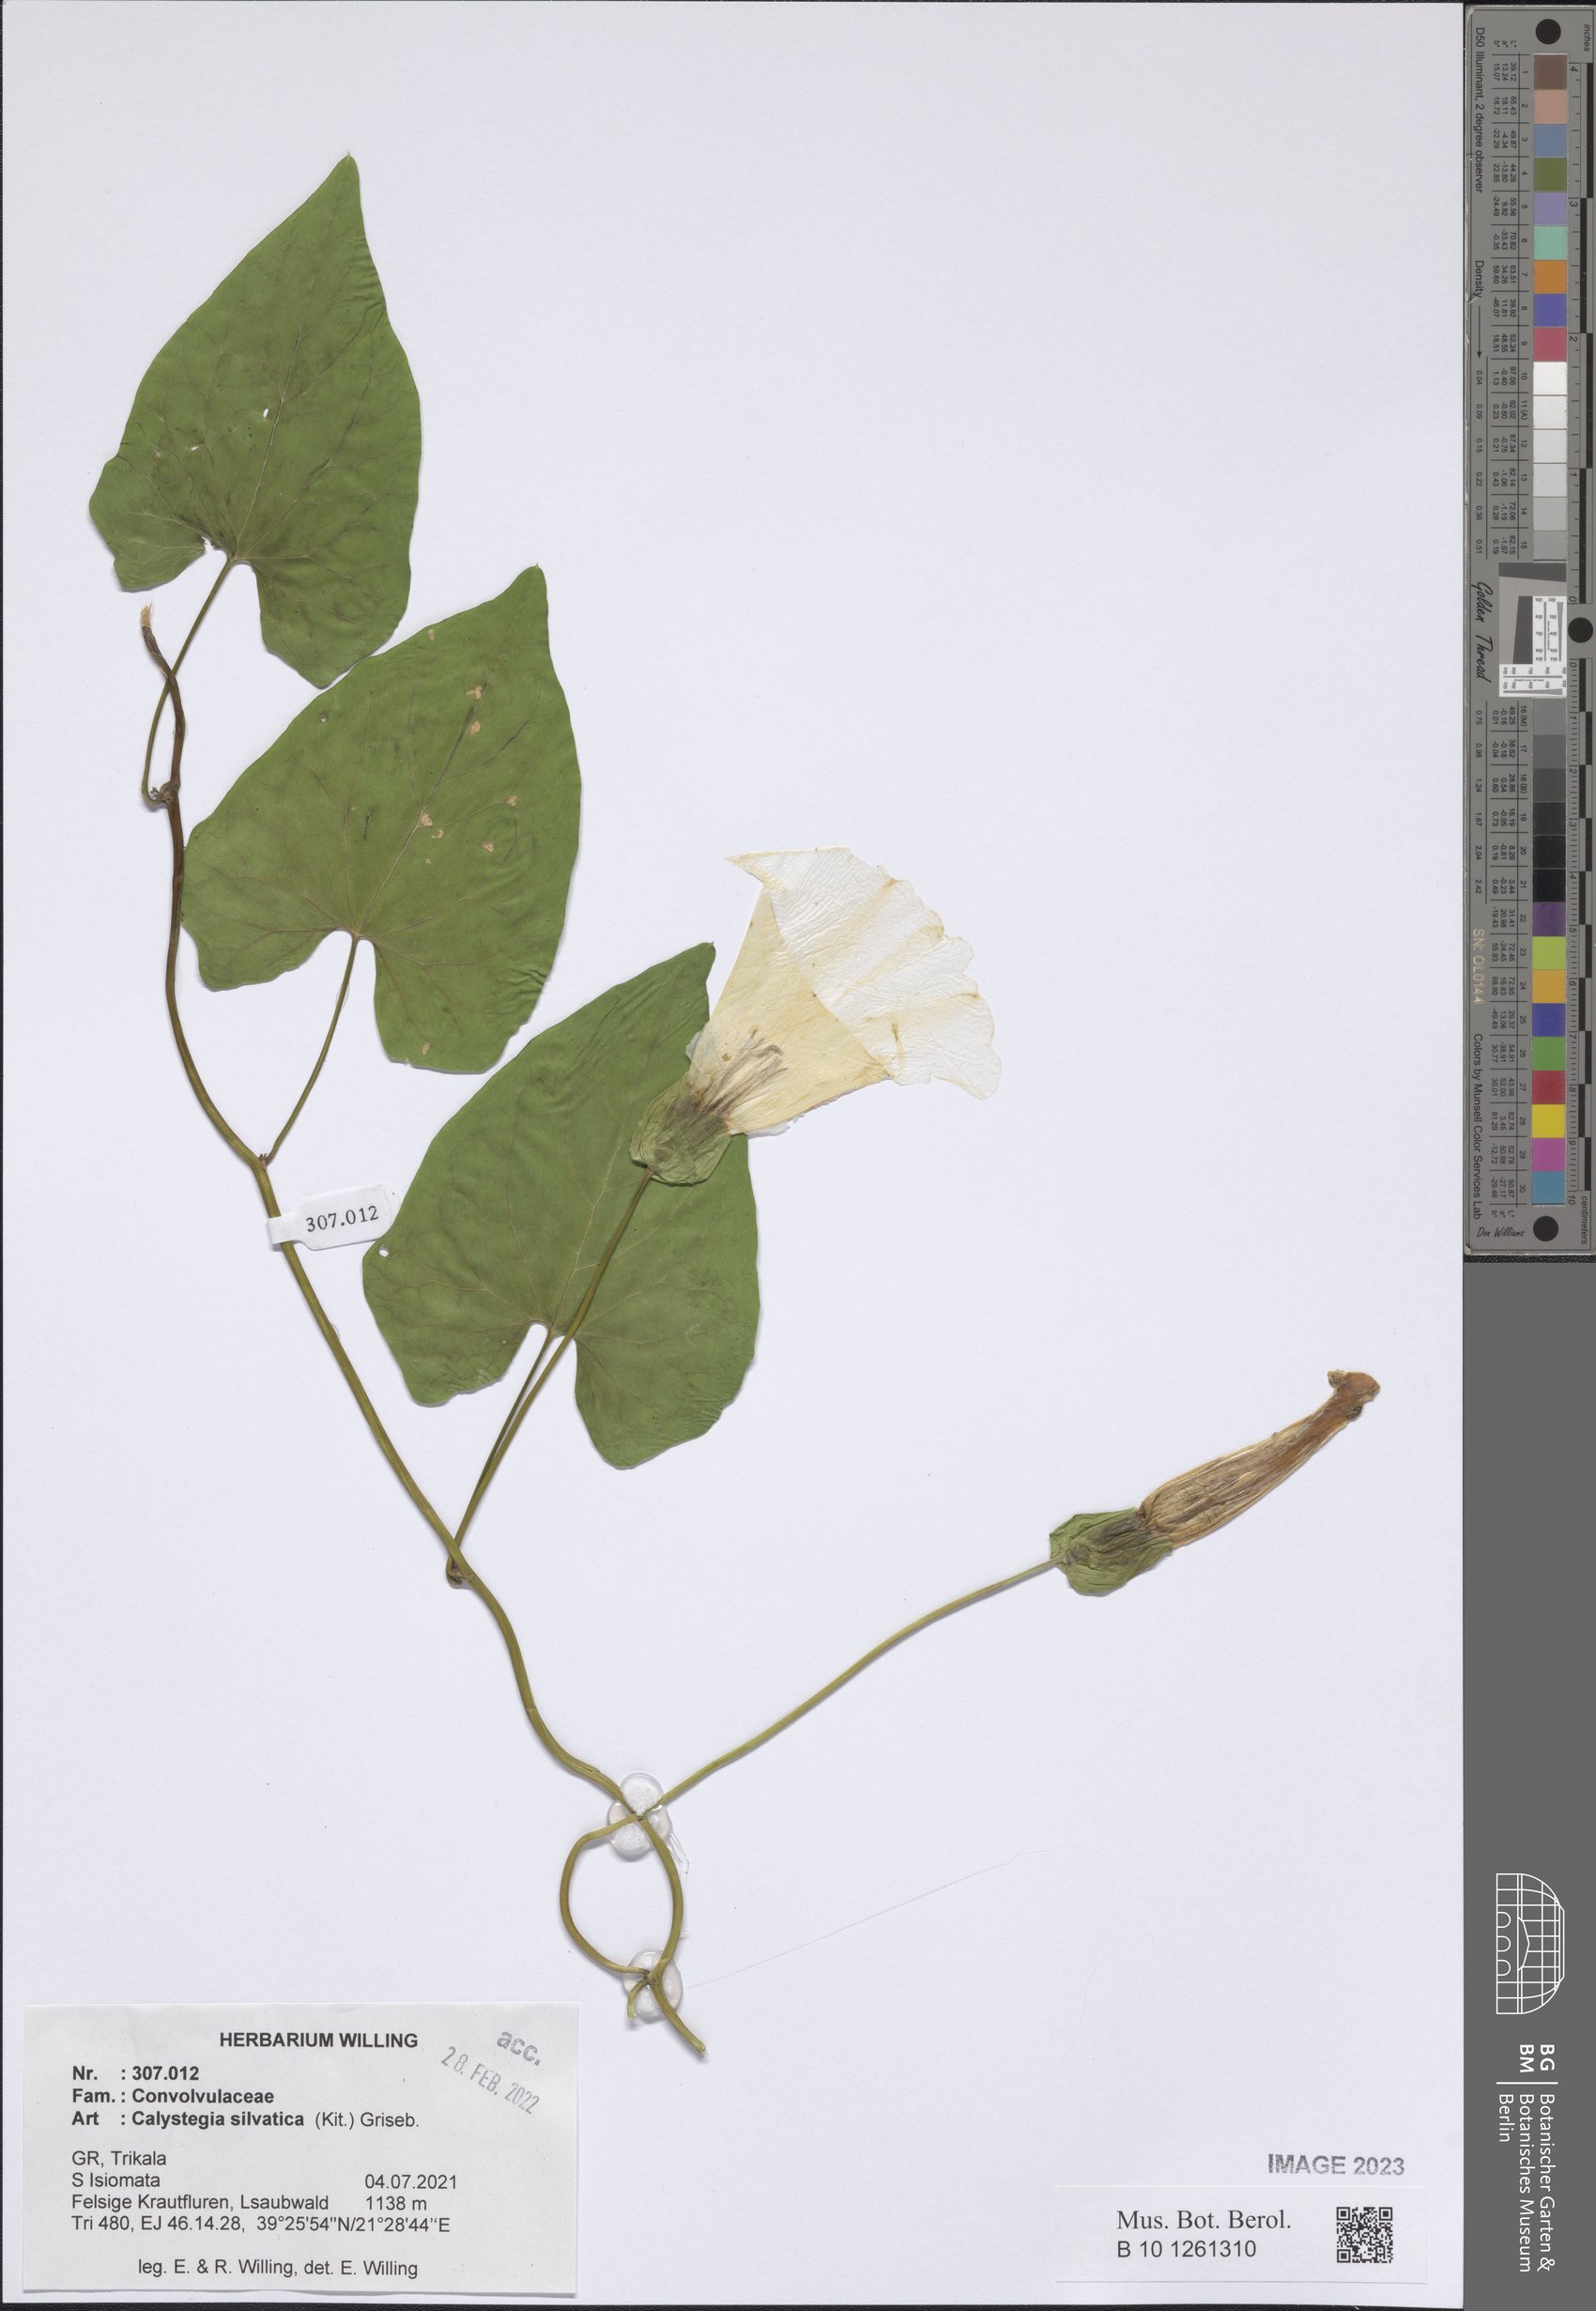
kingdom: Plantae
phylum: Tracheophyta
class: Magnoliopsida
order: Solanales
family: Convolvulaceae
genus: Calystegia
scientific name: Calystegia silvatica
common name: Large bindweed
